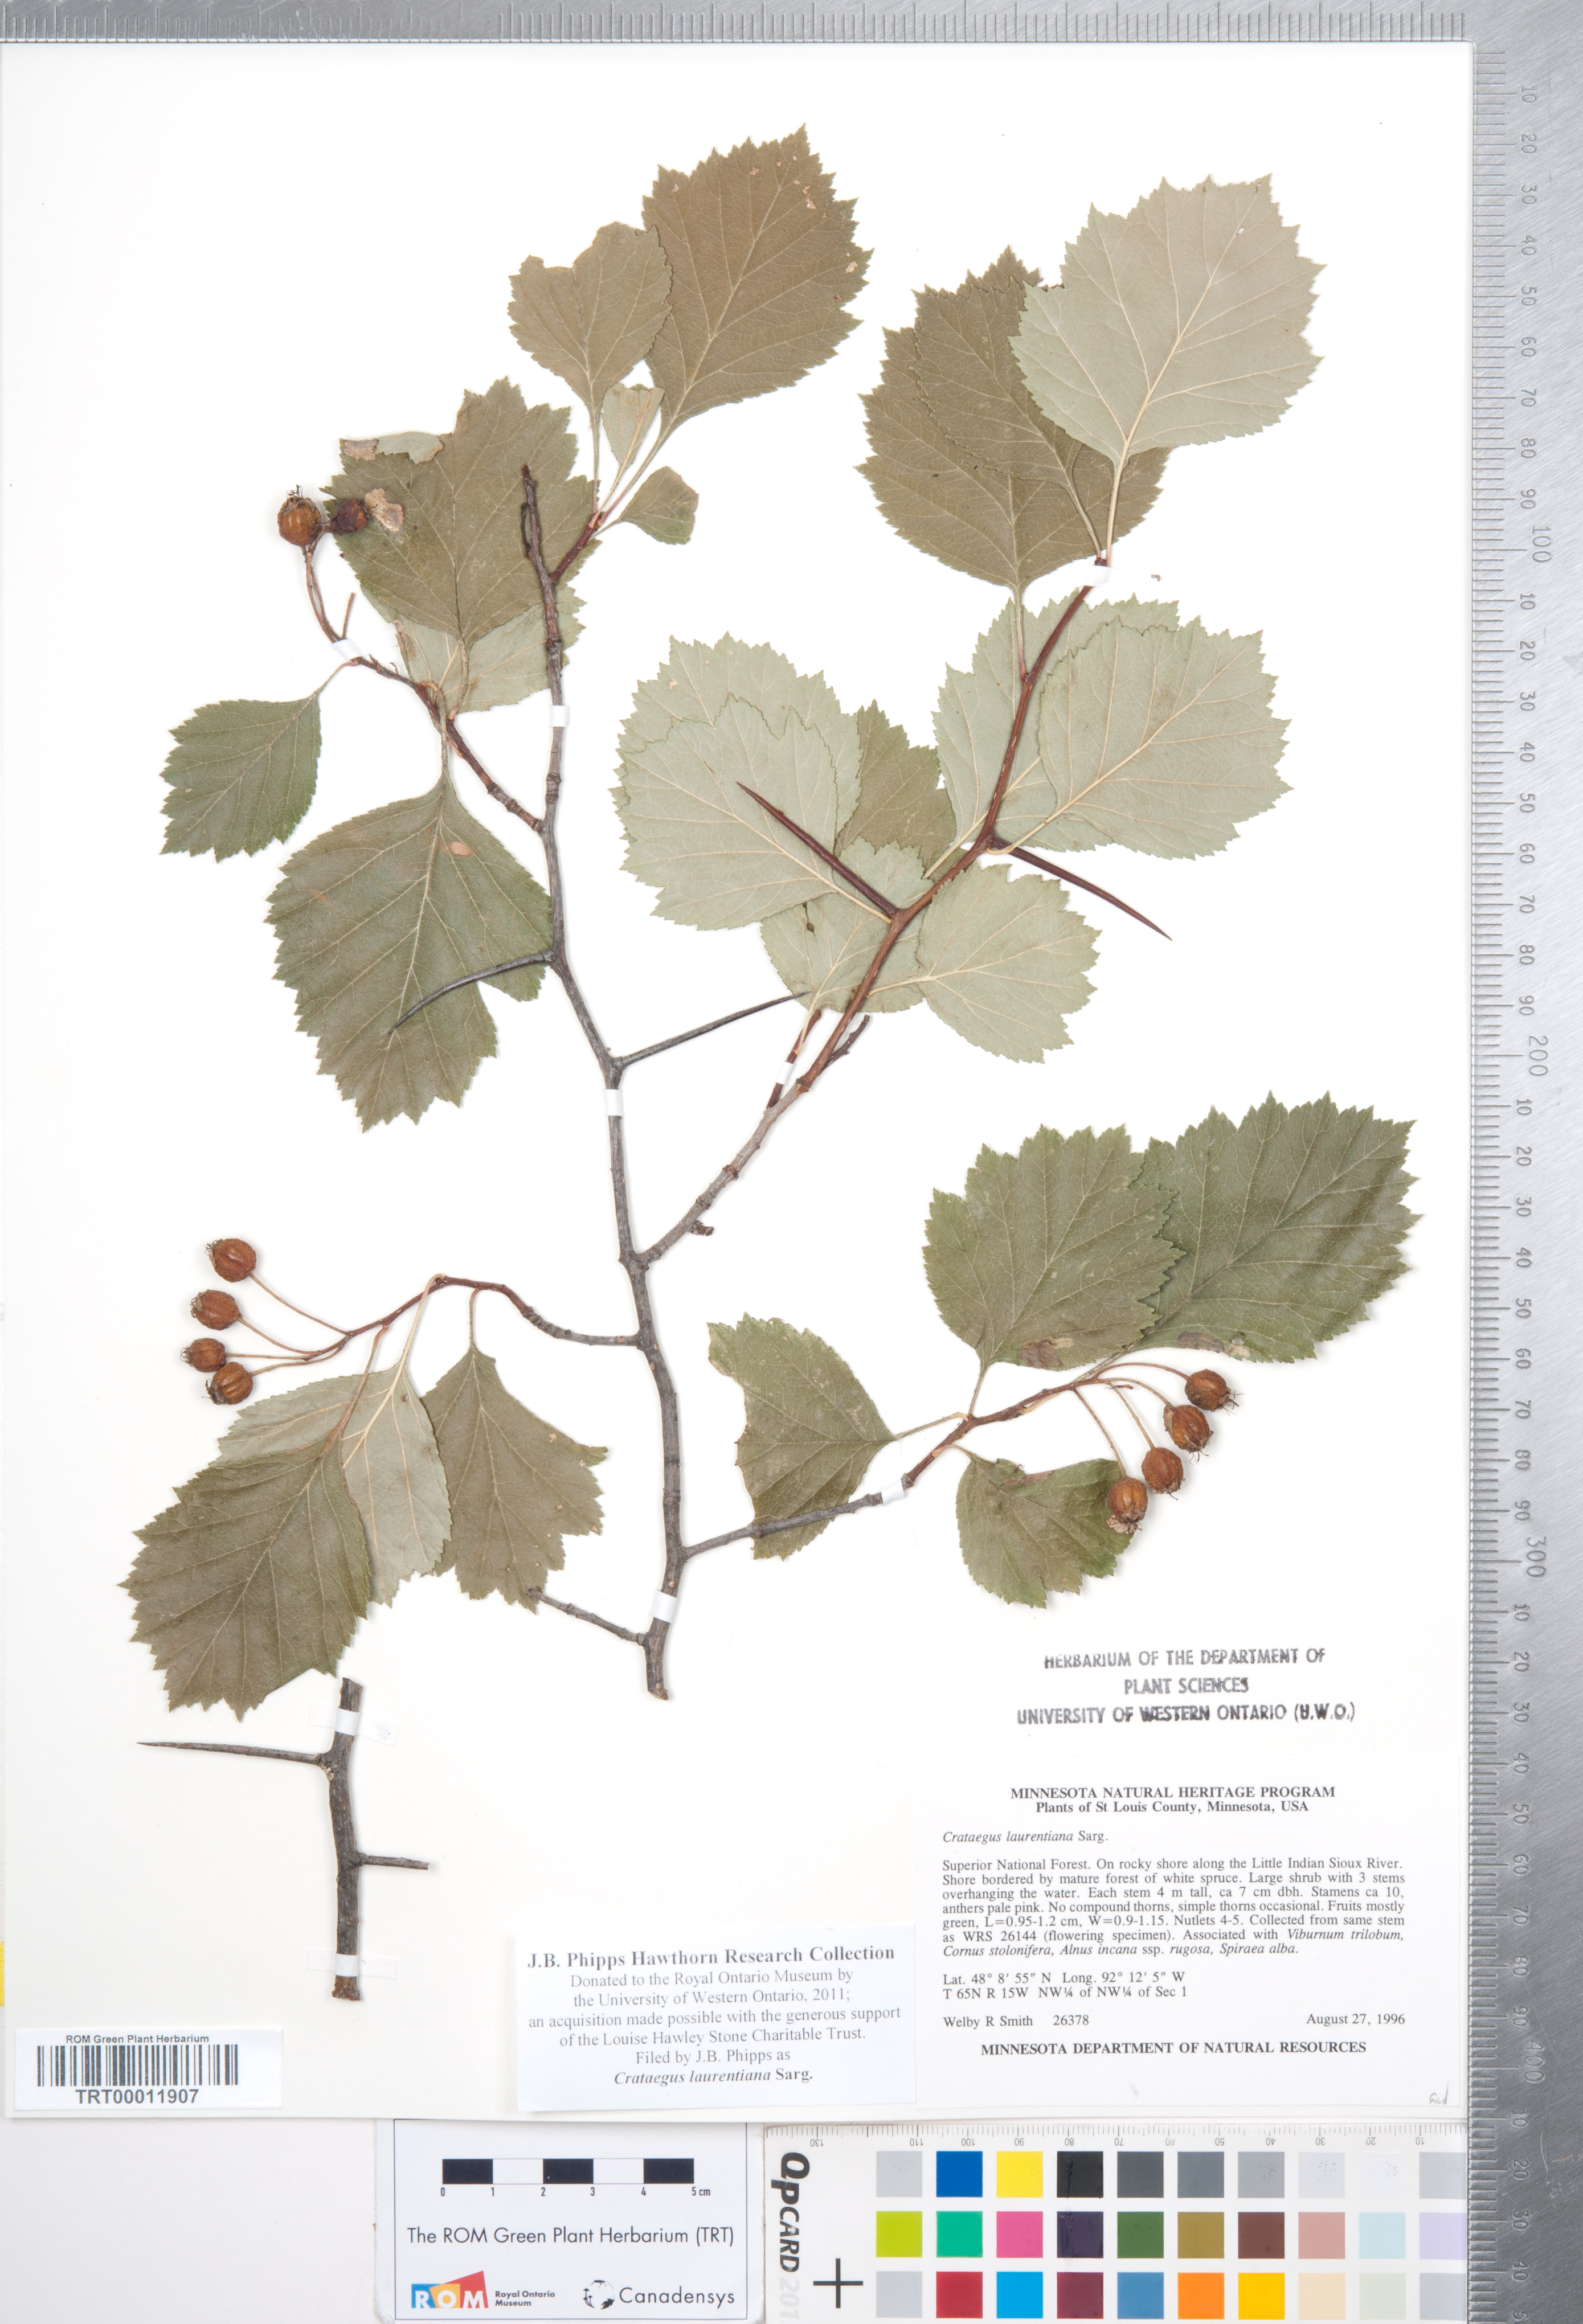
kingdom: Plantae
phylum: Tracheophyta
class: Magnoliopsida
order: Rosales
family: Rosaceae
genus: Crataegus
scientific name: Crataegus jonesiae
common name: Jones' hawthorn
